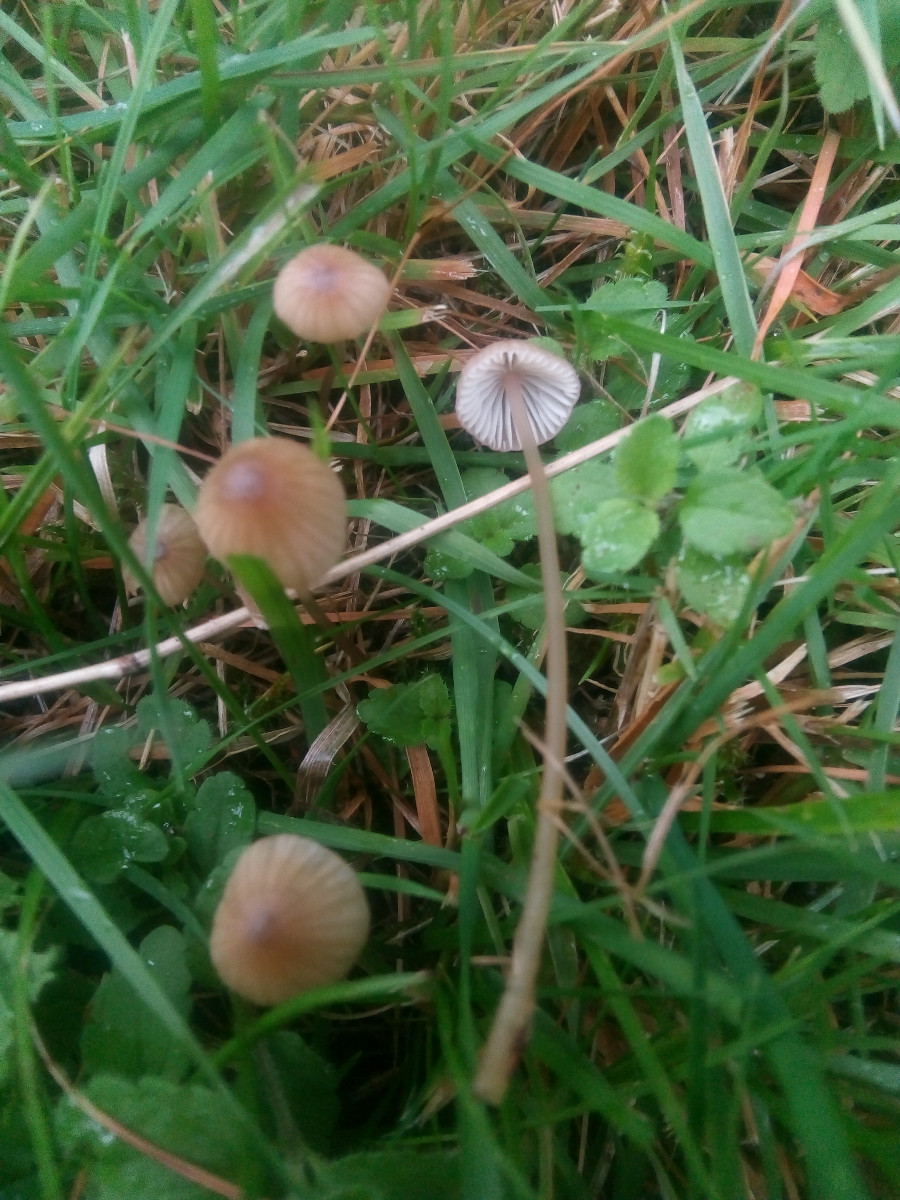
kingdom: Fungi
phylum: Basidiomycota
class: Agaricomycetes
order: Agaricales
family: Mycenaceae
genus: Mycena
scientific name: Mycena olivaceomarginata
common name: brunægget huesvamp
